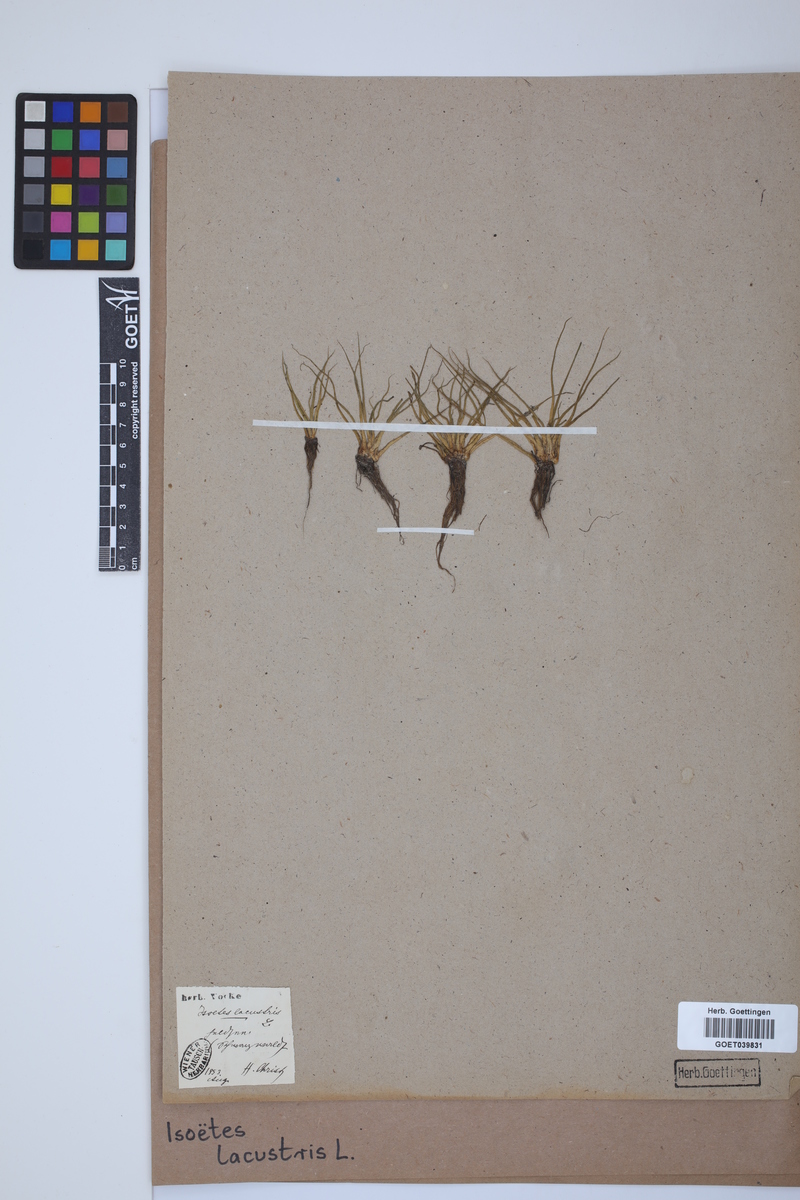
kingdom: Plantae
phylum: Tracheophyta
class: Lycopodiopsida
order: Isoetales
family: Isoetaceae
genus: Isoetes
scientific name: Isoetes lacustris
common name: Common quillwort
